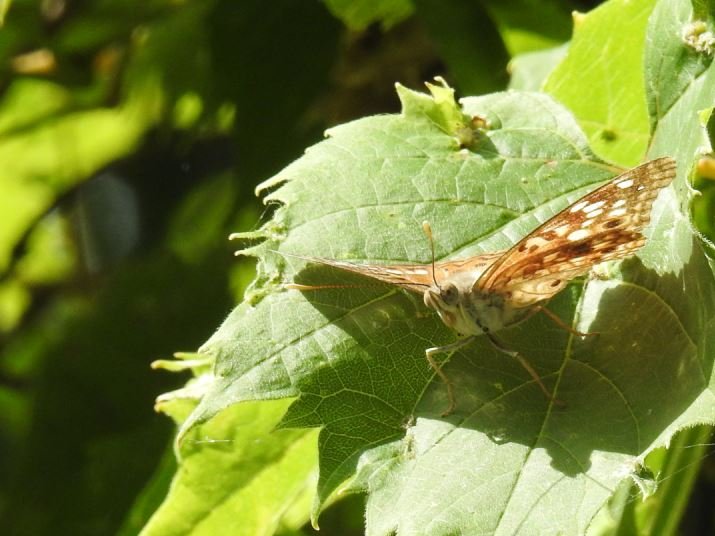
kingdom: Animalia
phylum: Arthropoda
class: Insecta
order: Lepidoptera
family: Nymphalidae
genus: Asterocampa
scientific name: Asterocampa celtis
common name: Hackberry Emperor
